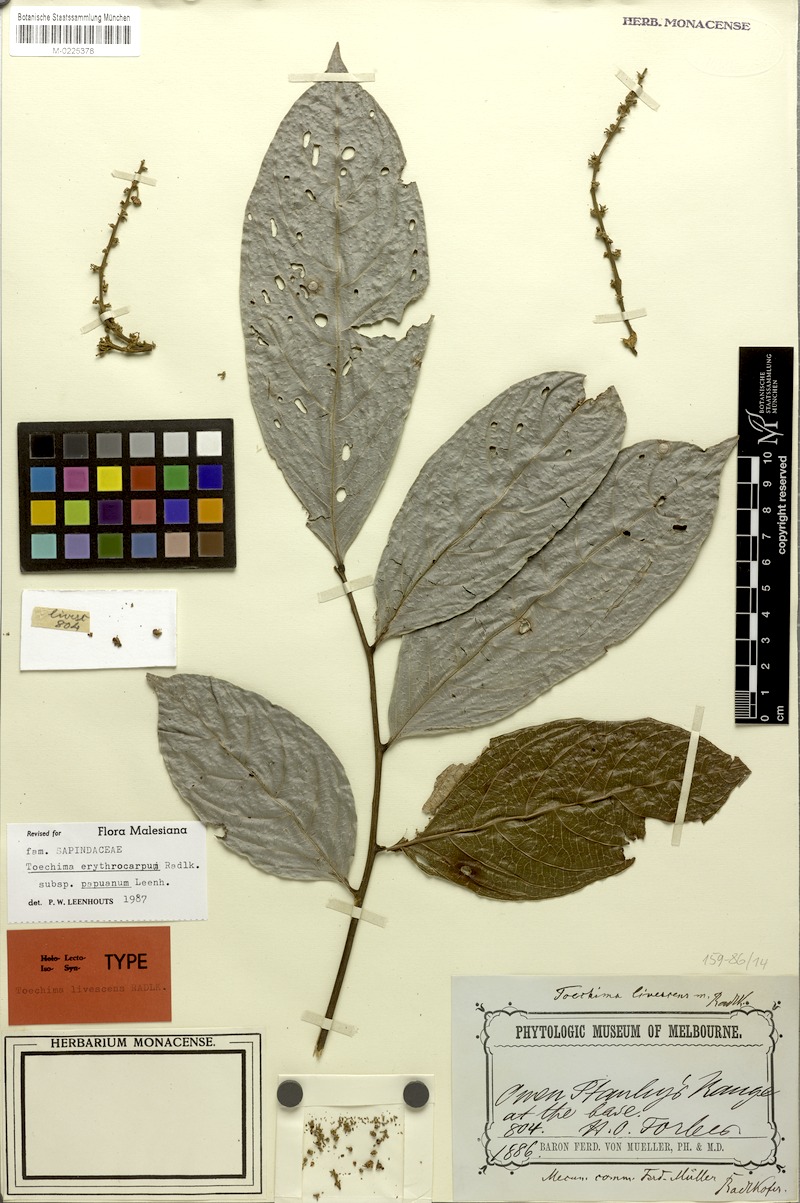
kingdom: Plantae
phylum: Tracheophyta
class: Magnoliopsida
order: Sapindales
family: Sapindaceae
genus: Toechima
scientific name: Toechima erythrocarpum
